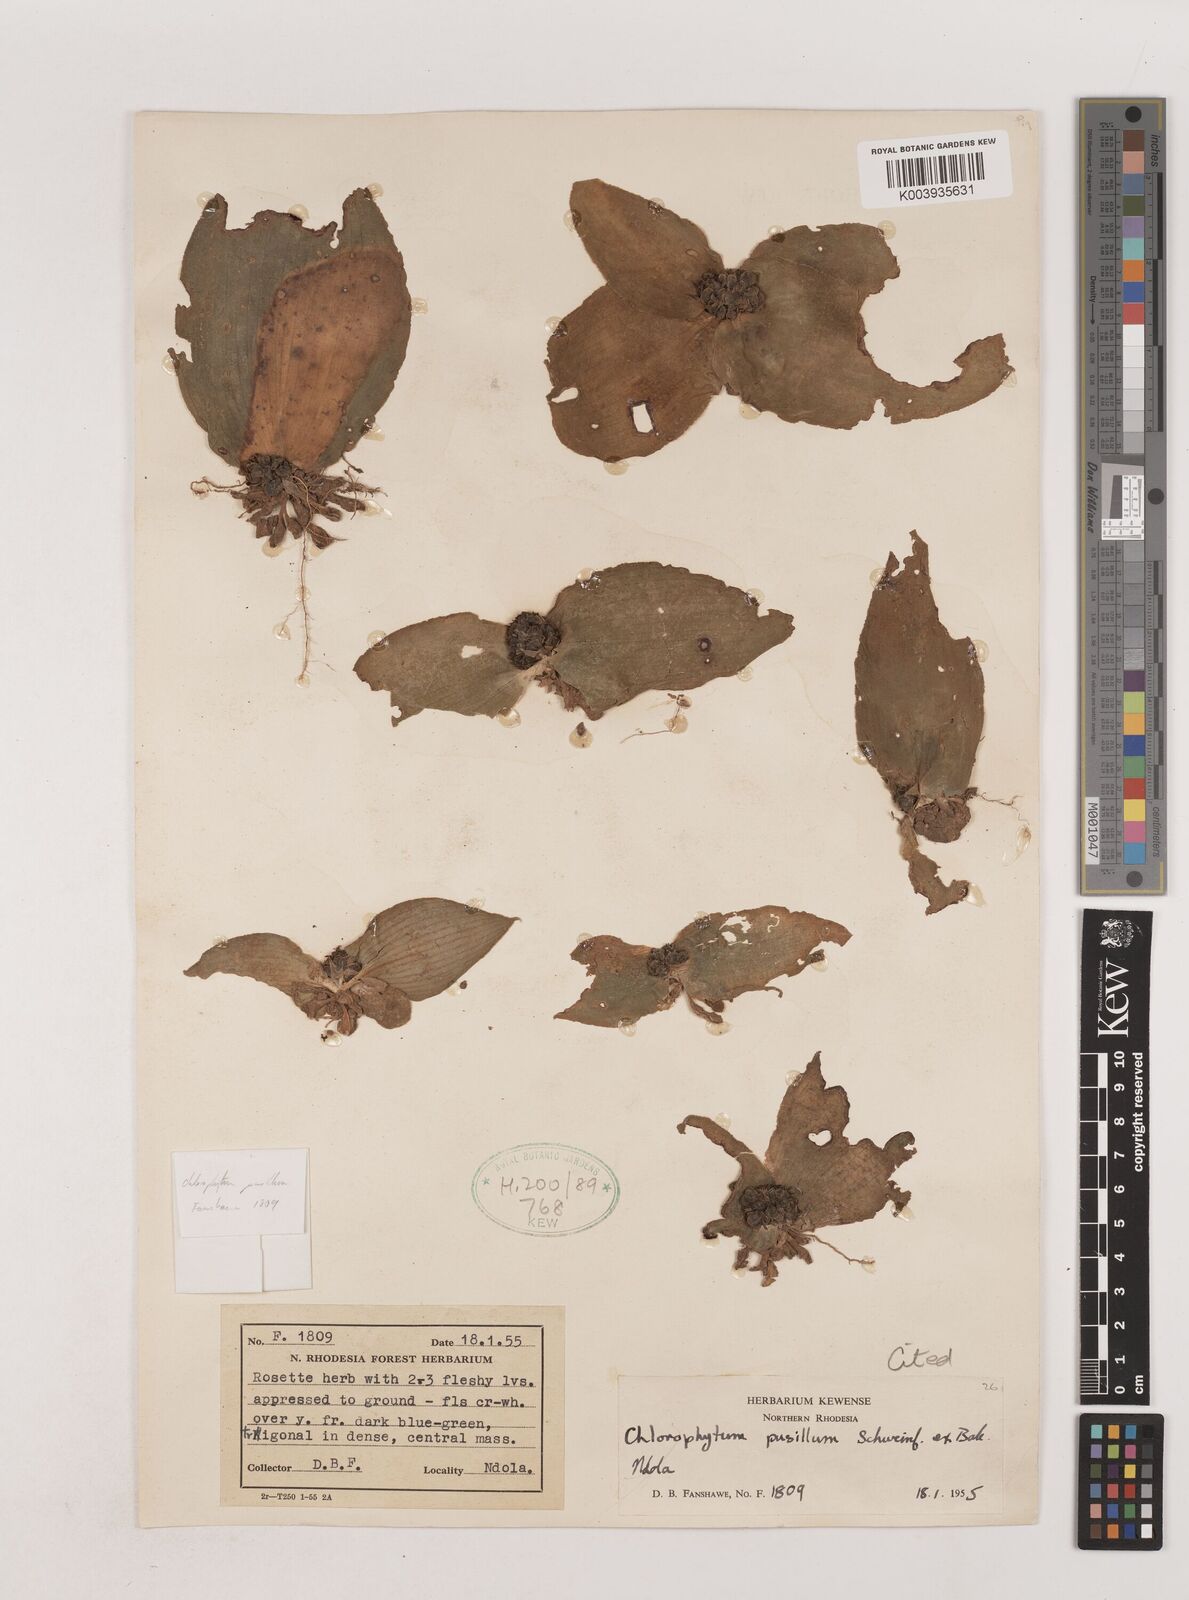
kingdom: Plantae
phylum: Tracheophyta
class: Liliopsida
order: Asparagales
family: Asparagaceae
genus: Chlorophytum
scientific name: Chlorophytum pusillum
